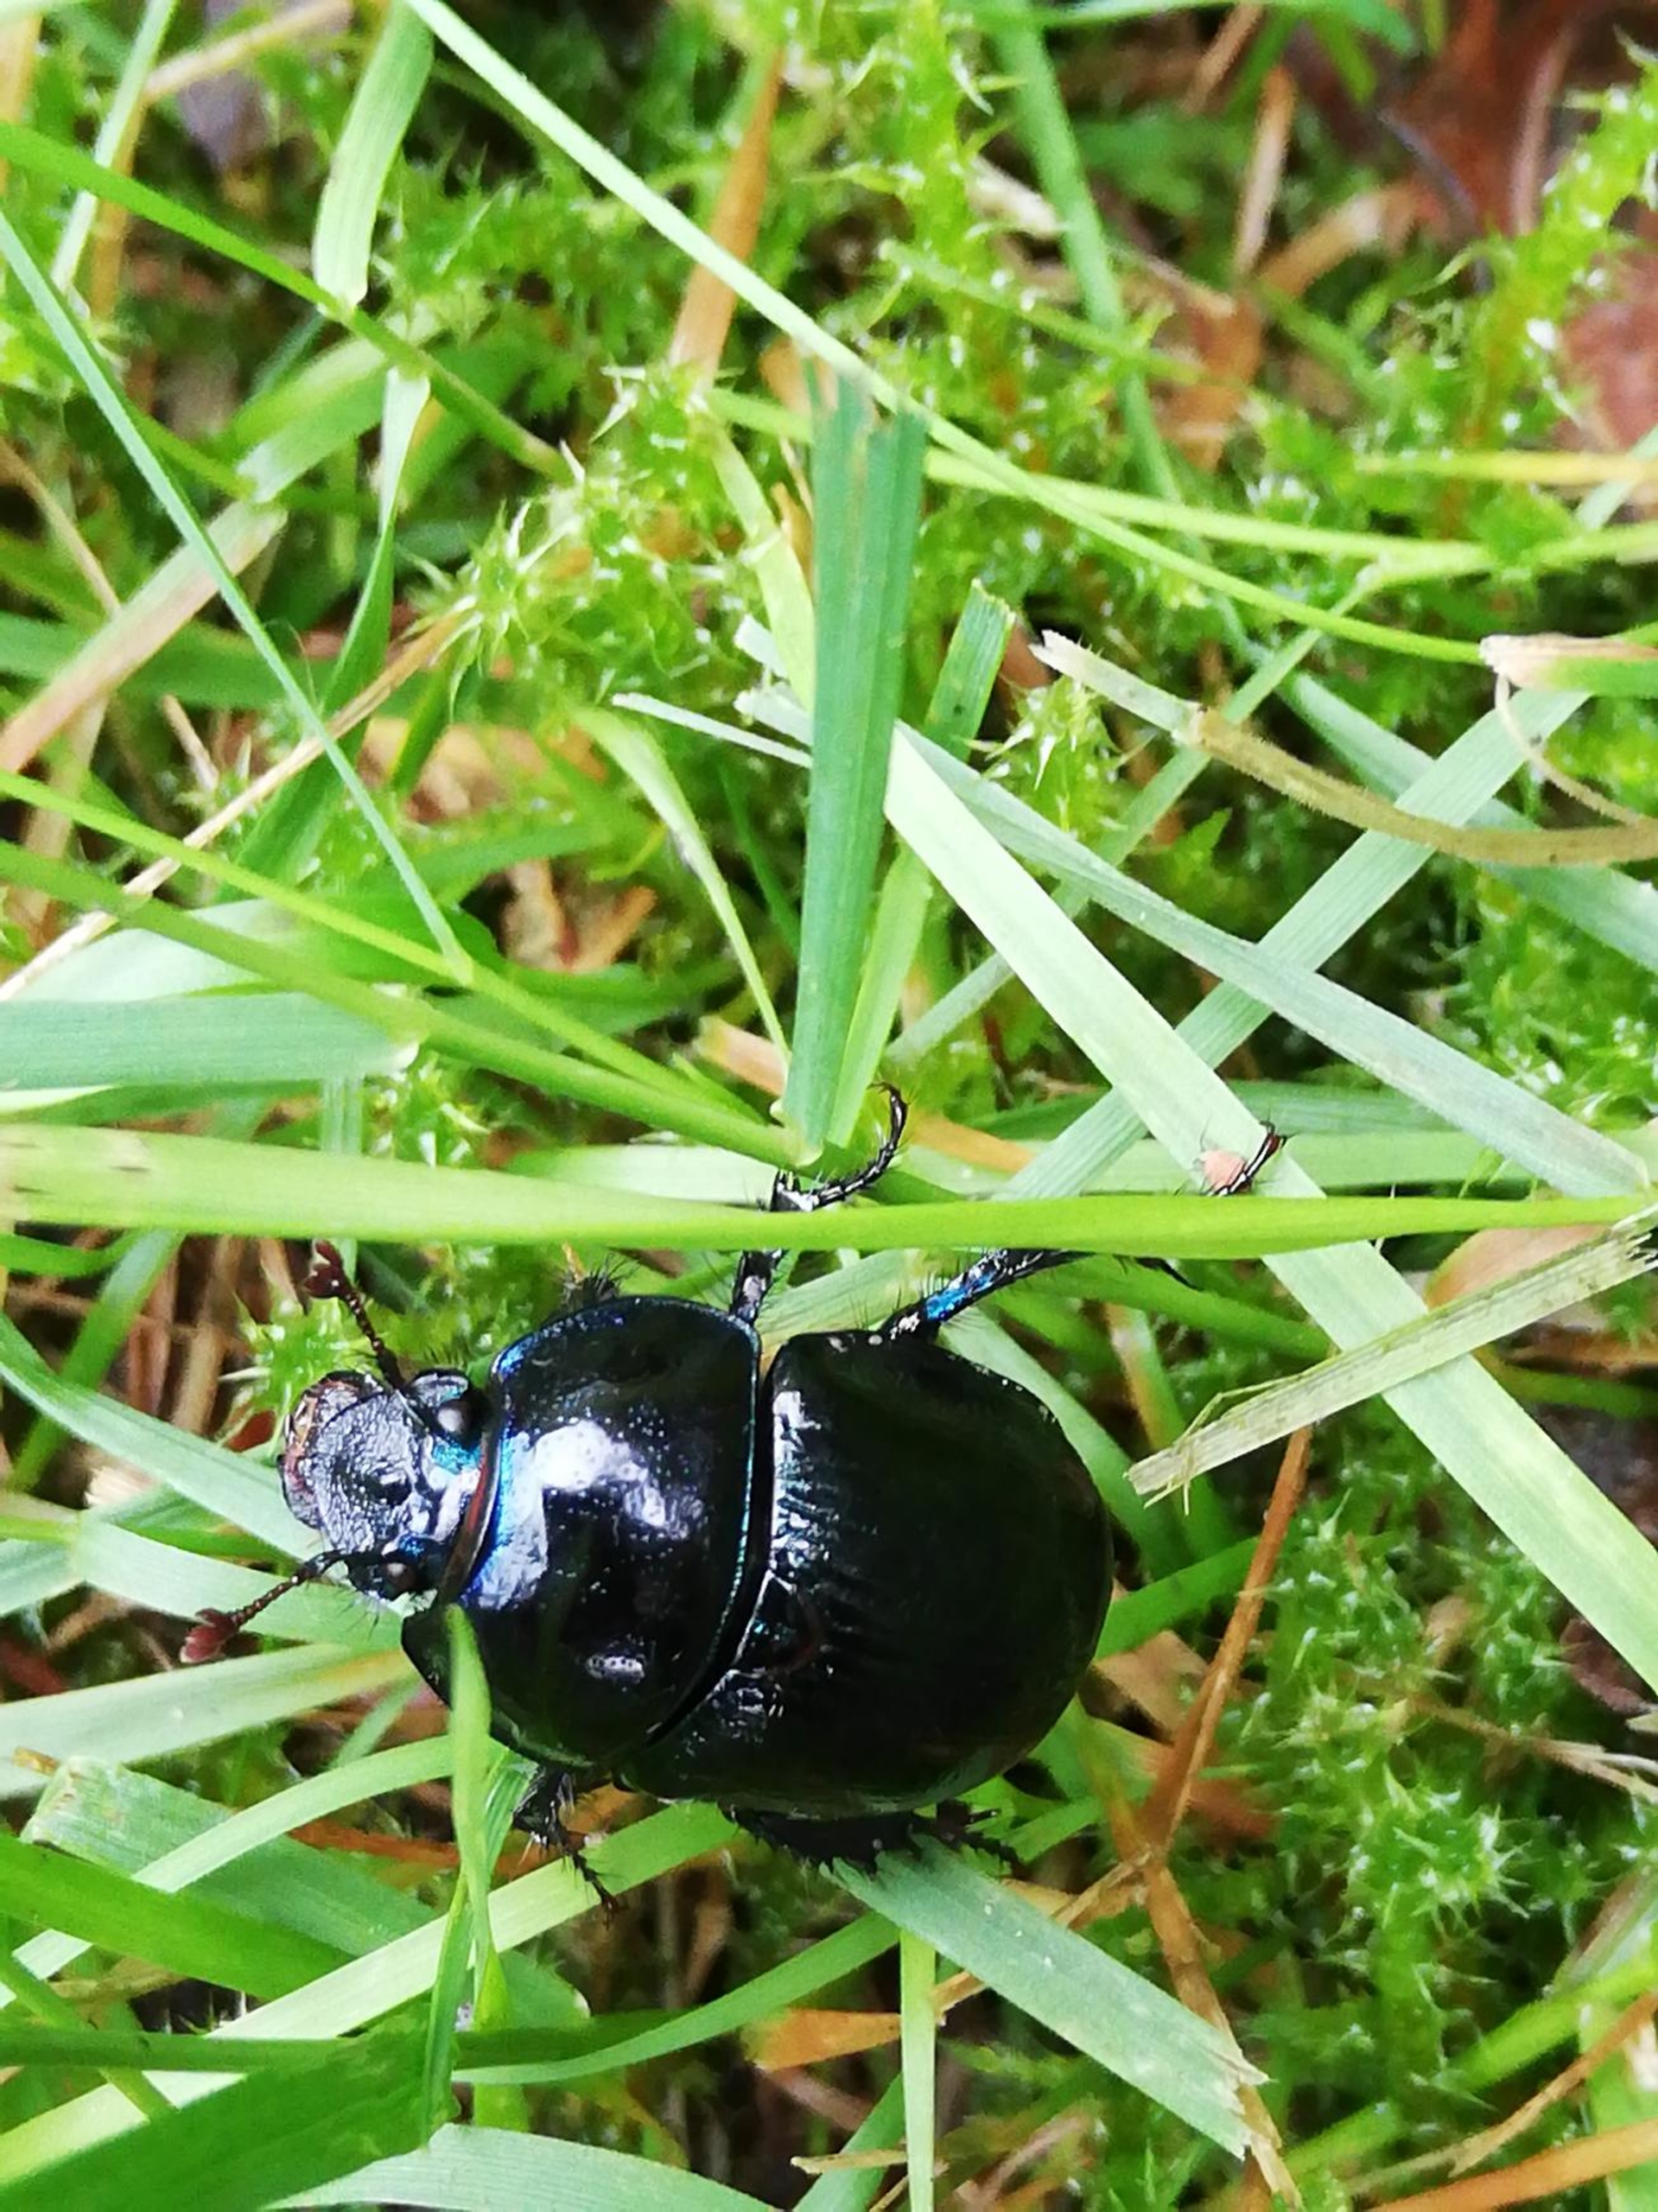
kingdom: Animalia
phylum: Arthropoda
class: Insecta
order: Coleoptera
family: Geotrupidae
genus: Anoplotrupes
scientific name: Anoplotrupes stercorosus
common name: Skovskarnbasse
